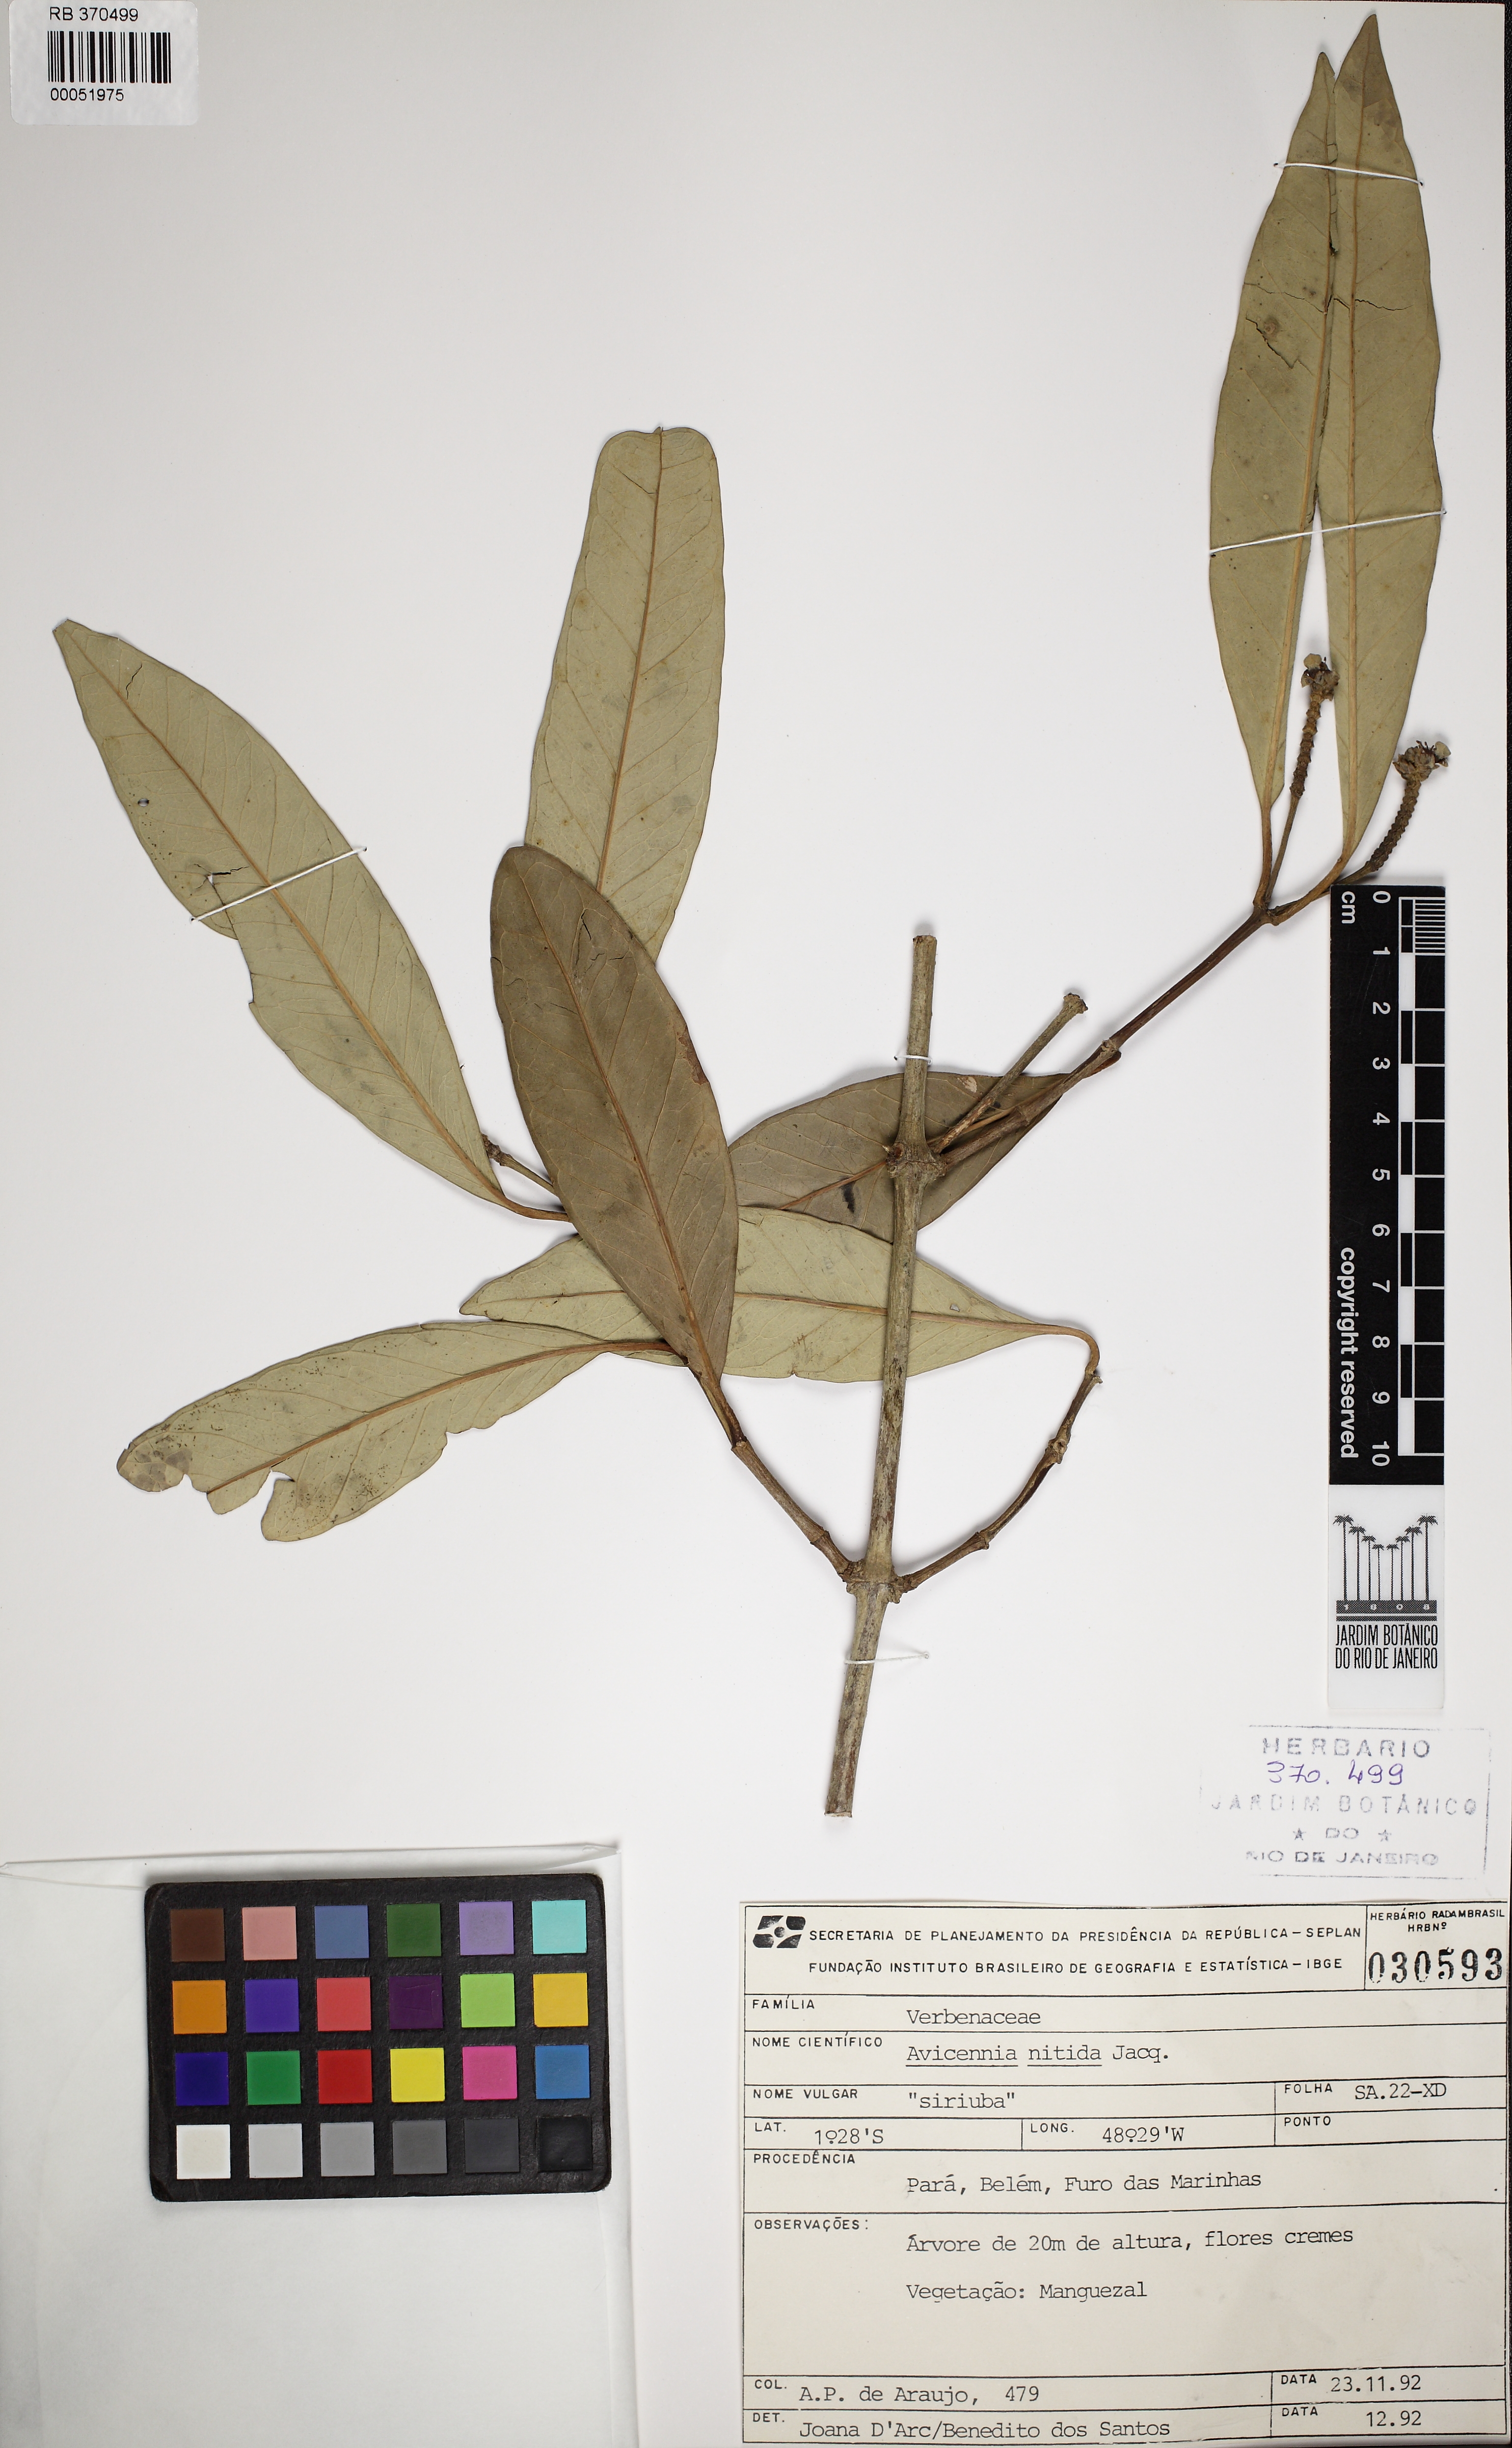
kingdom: Plantae
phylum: Tracheophyta
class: Magnoliopsida
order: Lamiales
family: Acanthaceae
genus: Avicennia
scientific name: Avicennia germinans
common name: Black mangrove
